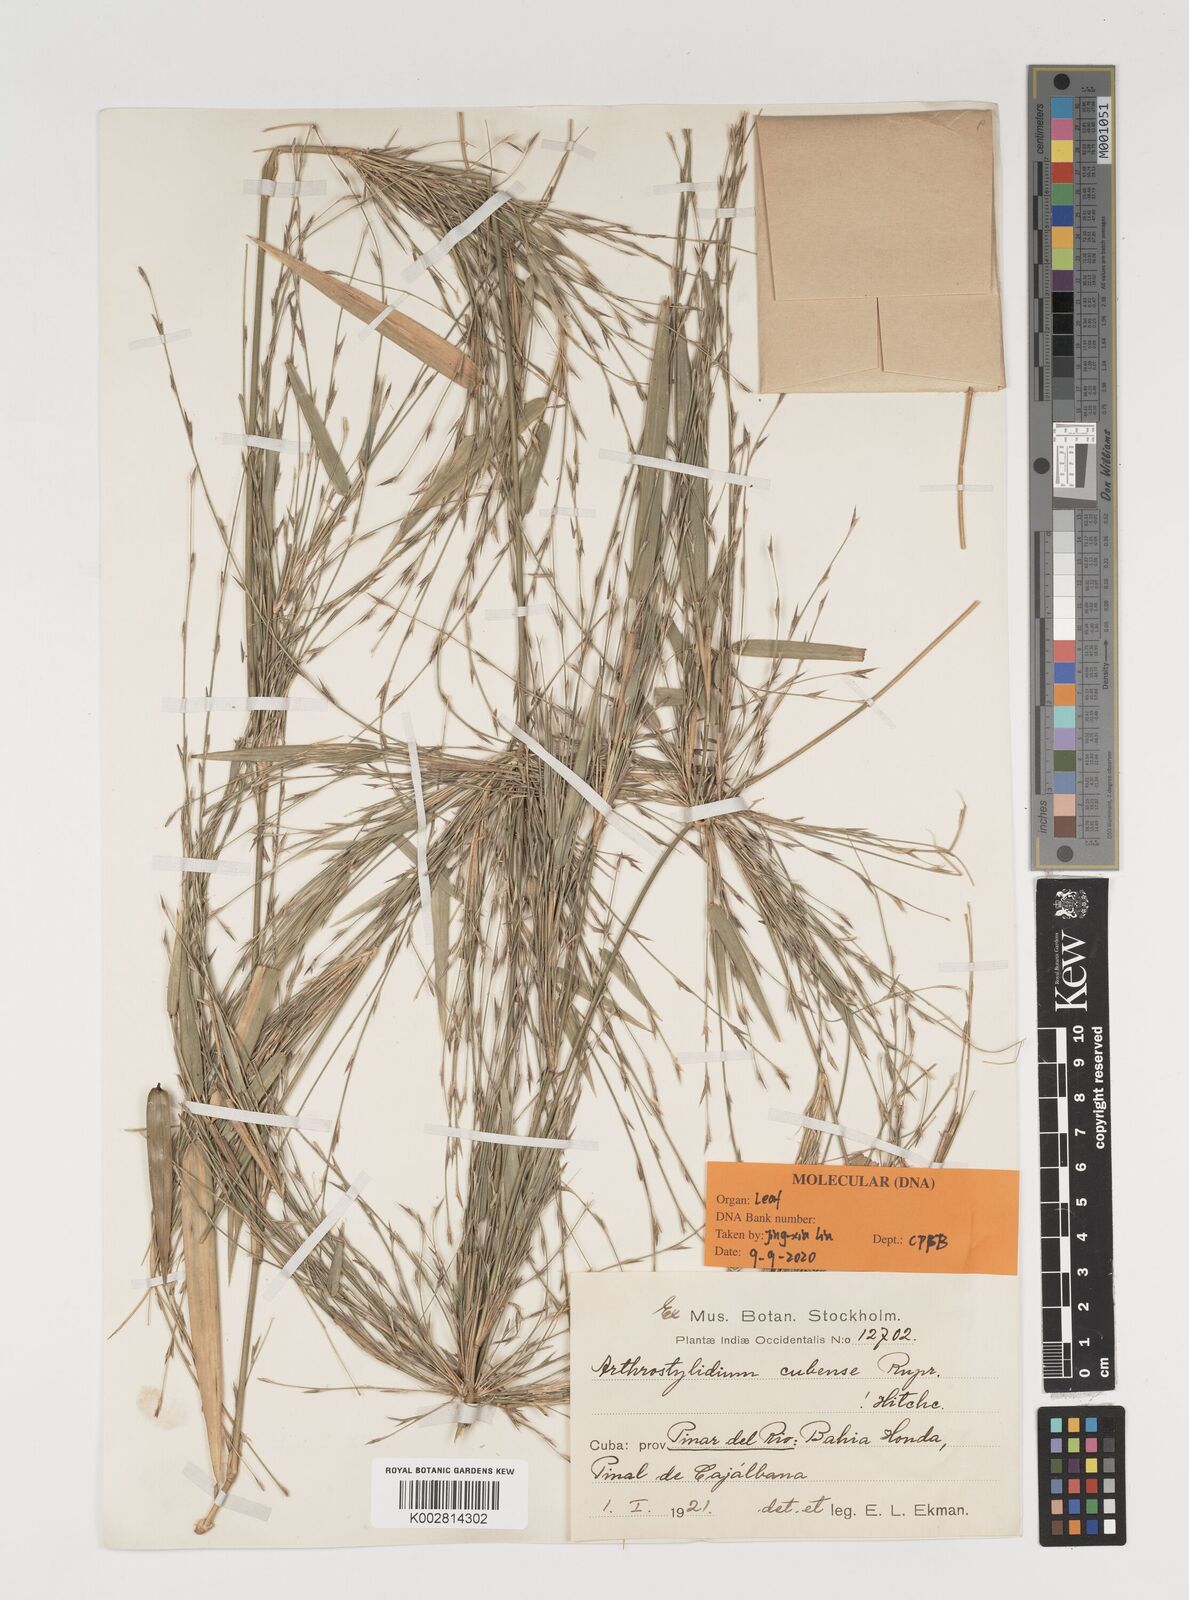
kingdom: Plantae
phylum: Tracheophyta
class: Liliopsida
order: Poales
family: Poaceae
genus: Arthrostylidium
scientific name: Arthrostylidium cubense
